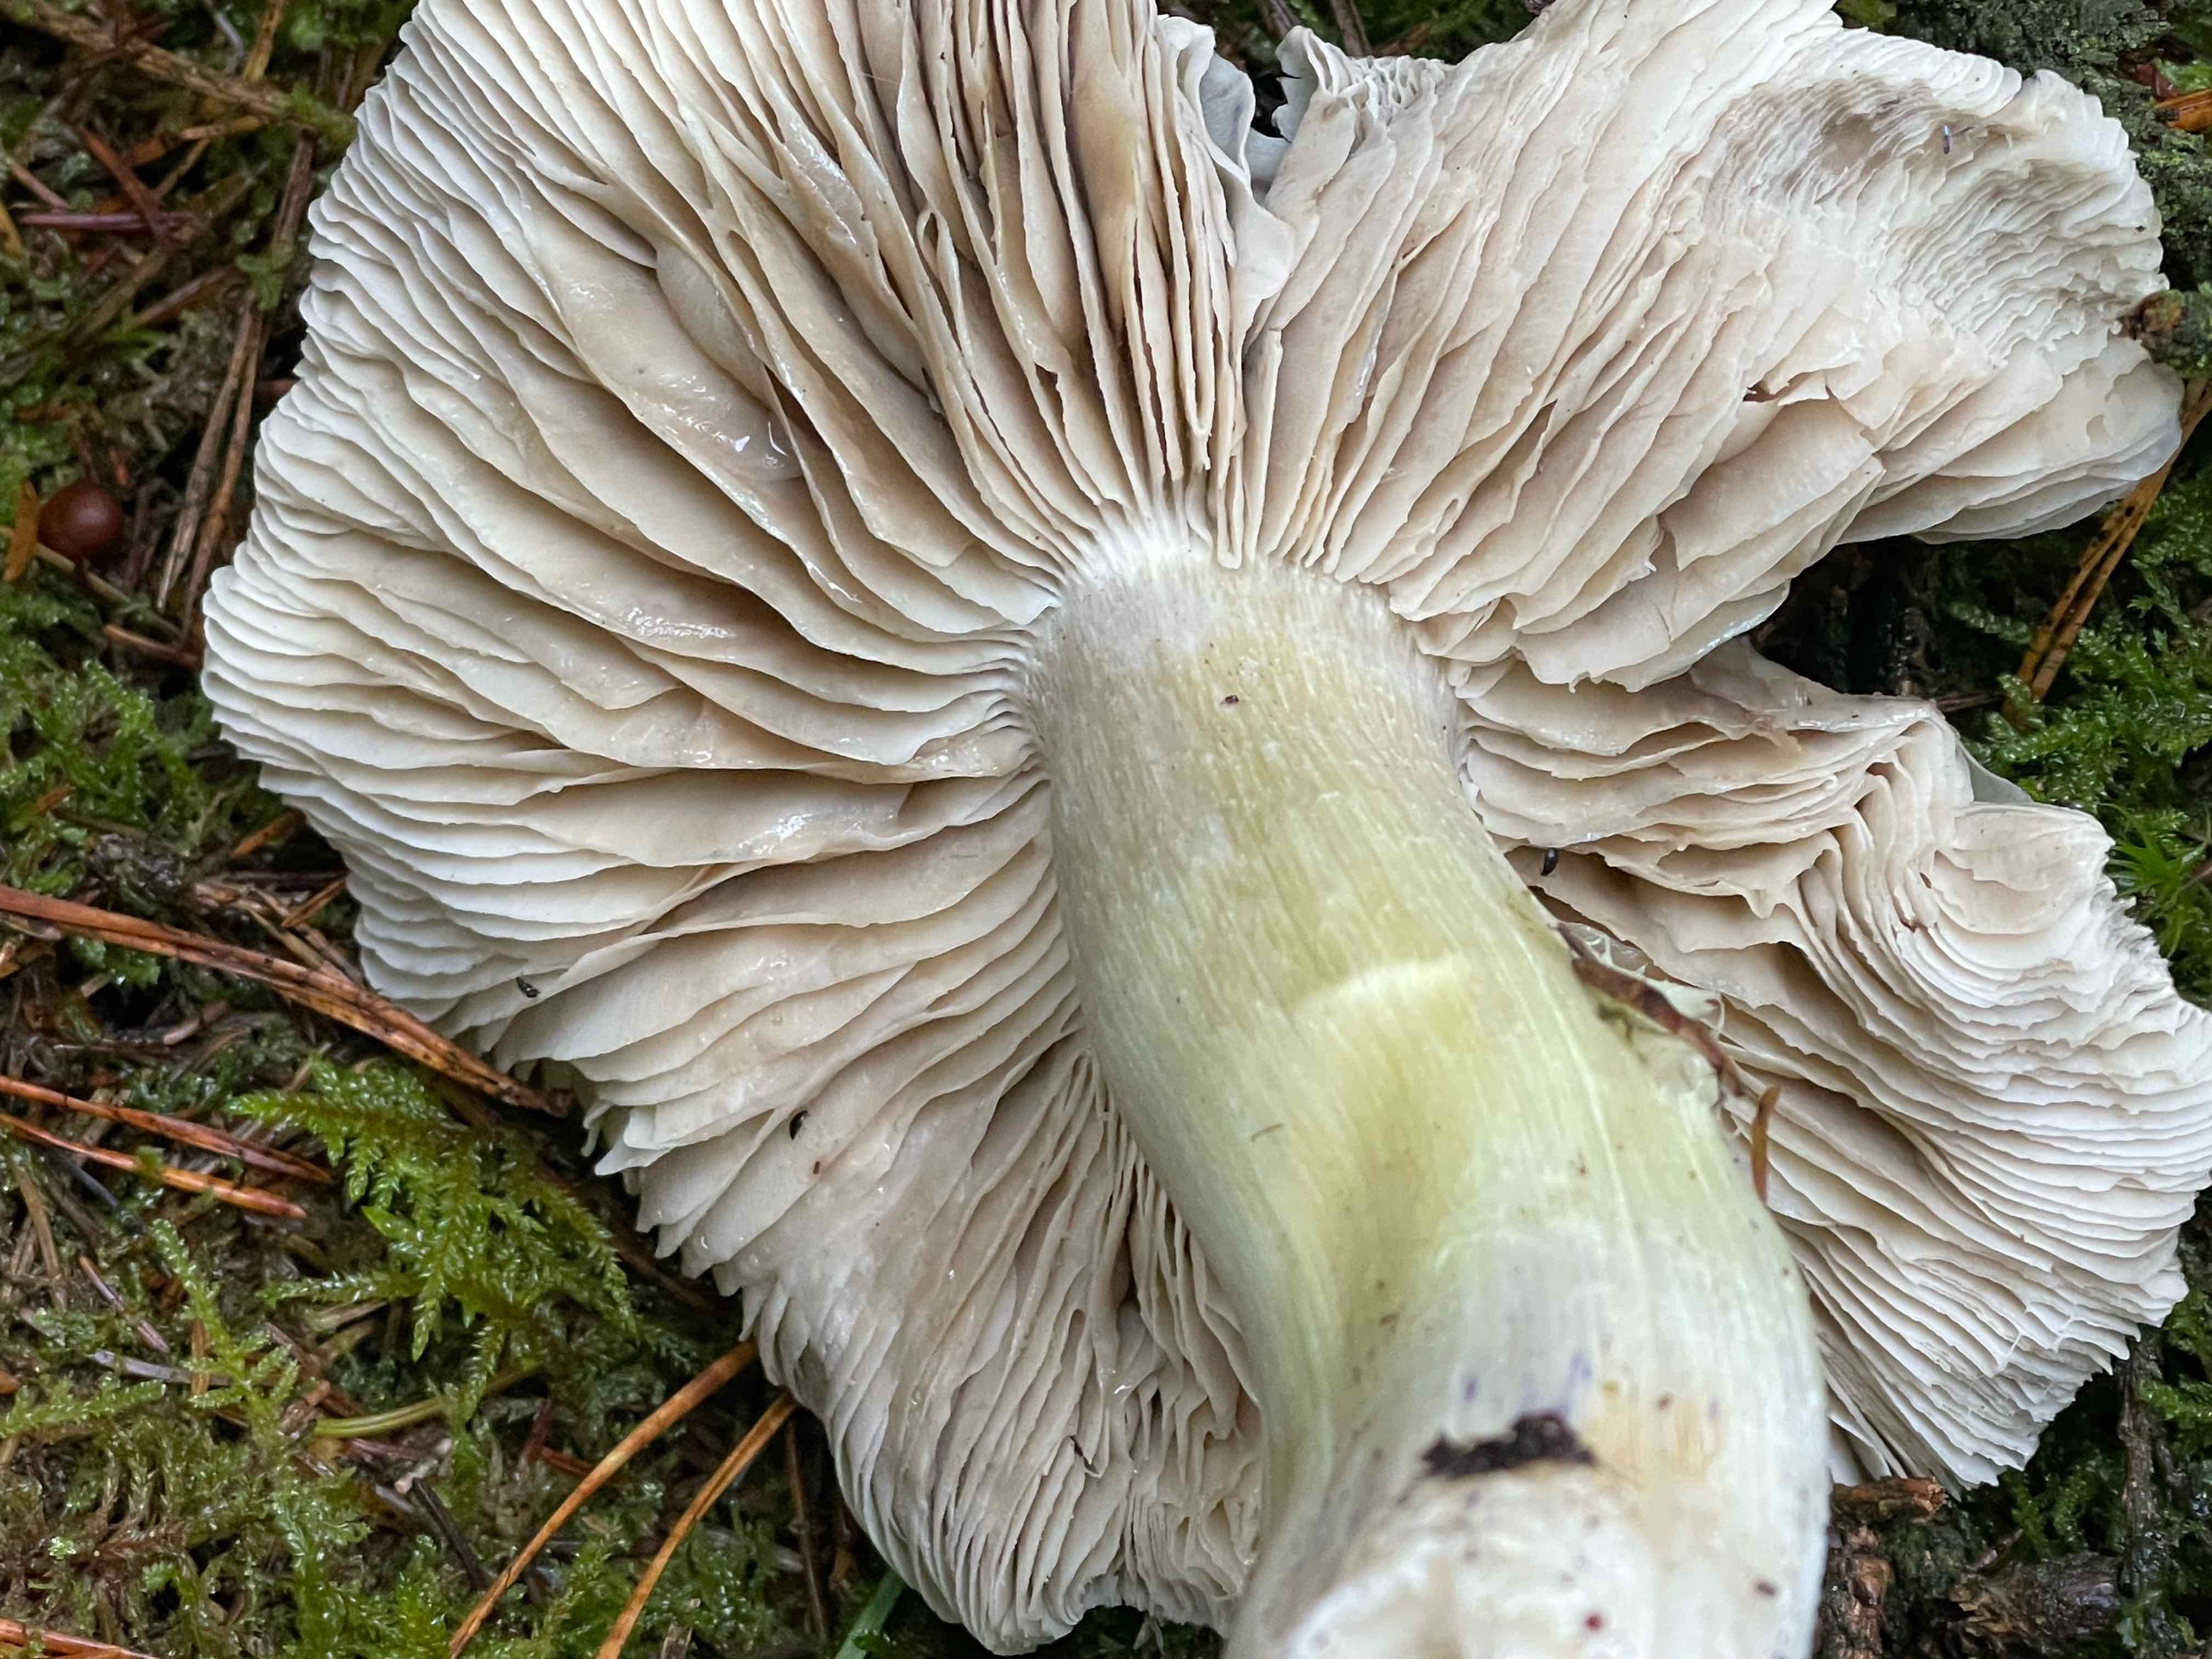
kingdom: Fungi
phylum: Basidiomycota
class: Agaricomycetes
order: Agaricales
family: Tricholomataceae
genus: Tricholoma
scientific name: Tricholoma portentosum
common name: grå ridderhat
